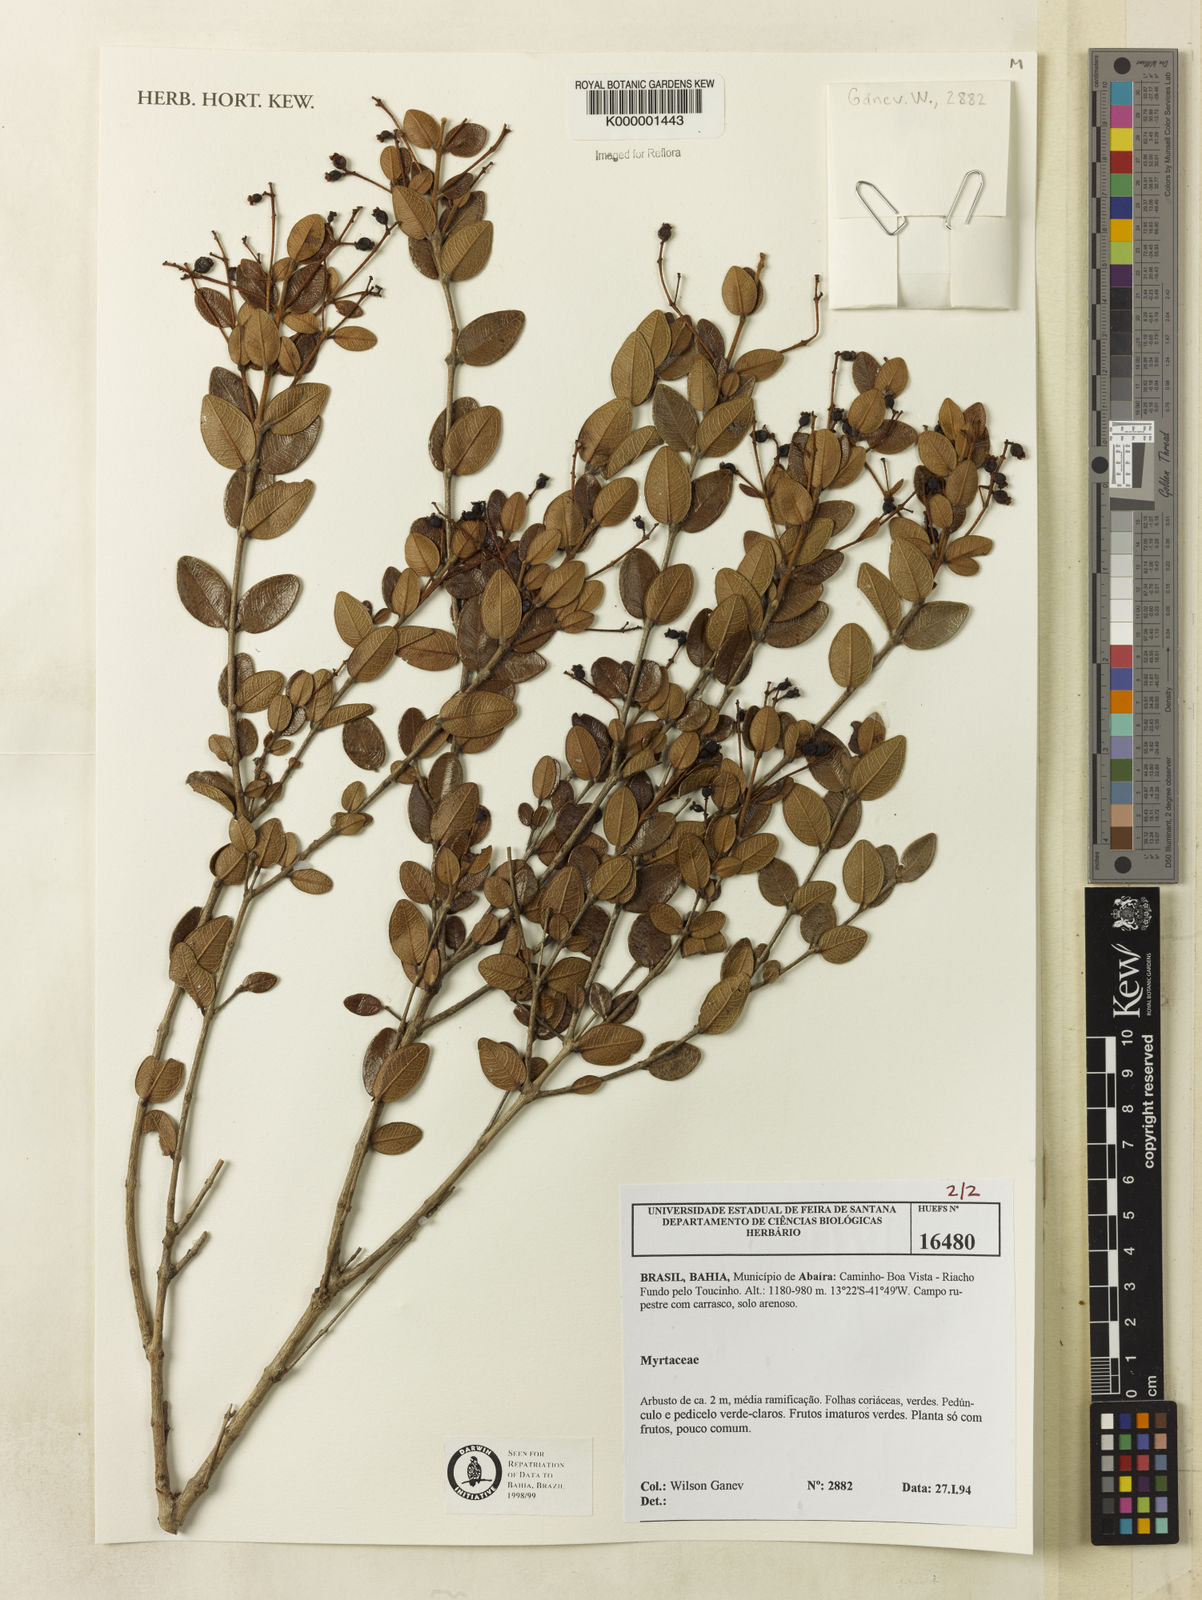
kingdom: Plantae
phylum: Tracheophyta
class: Magnoliopsida
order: Myrtales
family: Myrtaceae
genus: Myrcia
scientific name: Myrcia reticulosa
